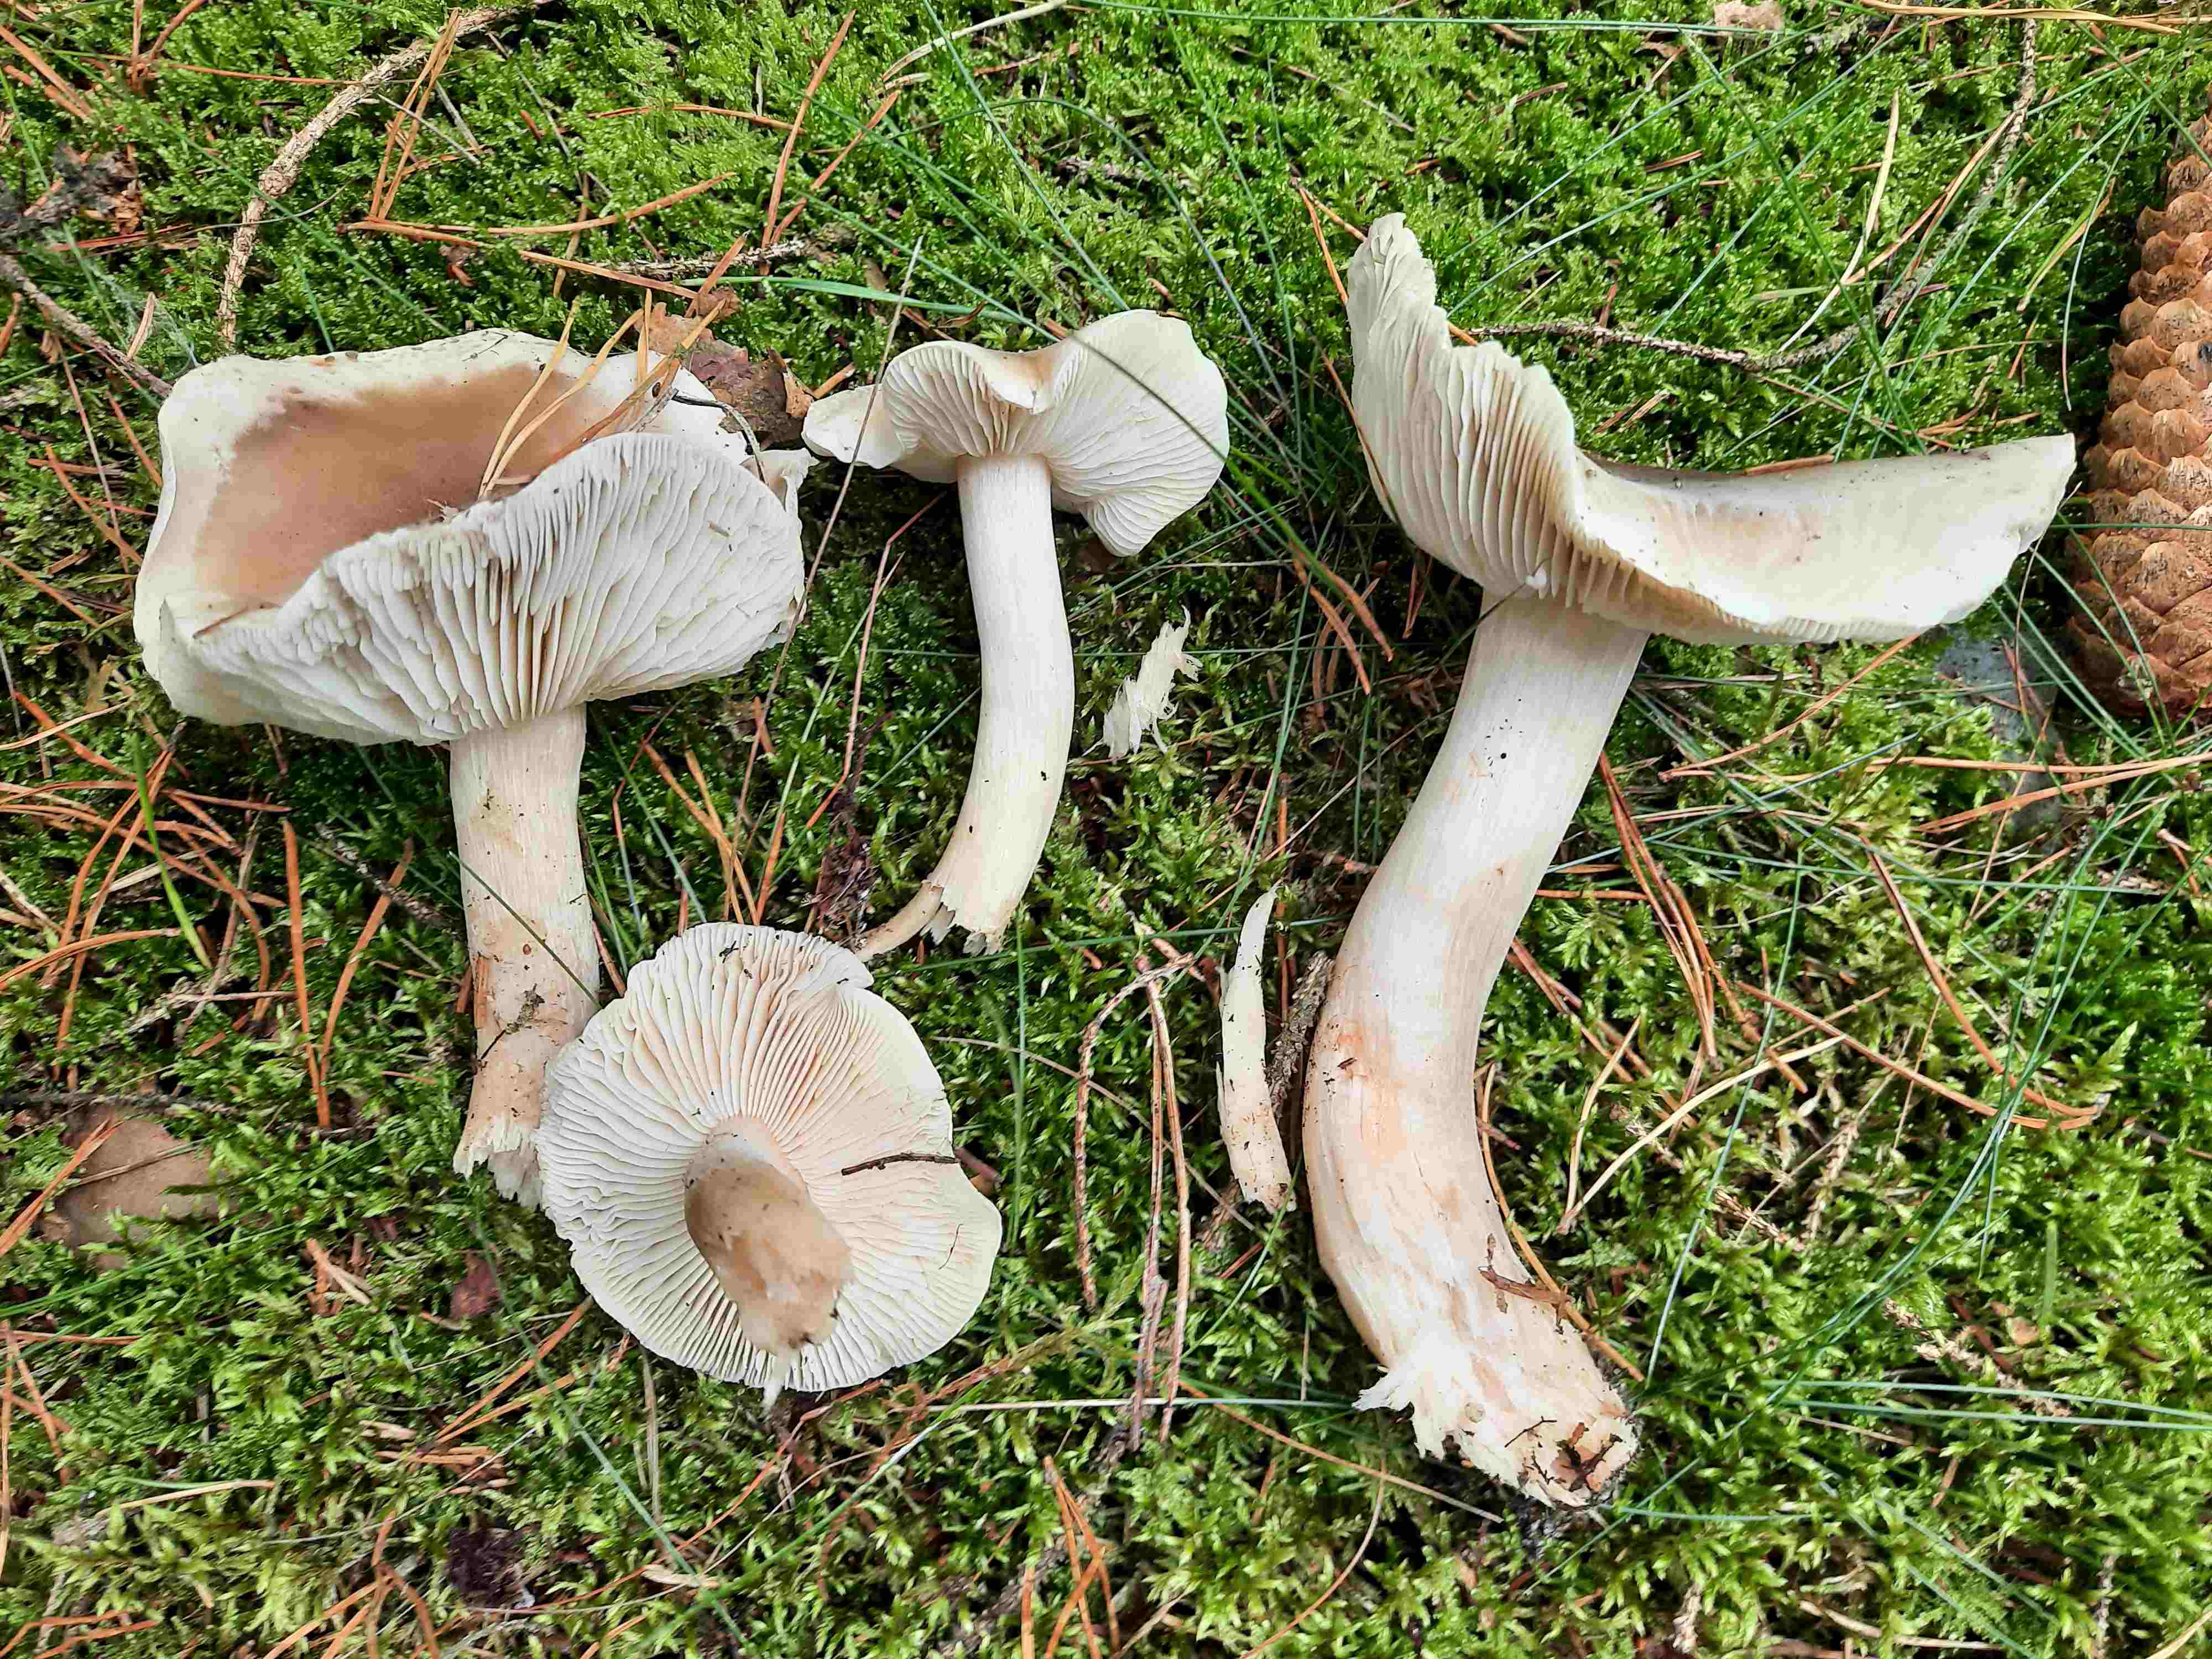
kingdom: Fungi
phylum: Basidiomycota
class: Agaricomycetes
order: Agaricales
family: Tricholomataceae
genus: Tricholoma
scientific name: Tricholoma sudum
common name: tør ridderhat
